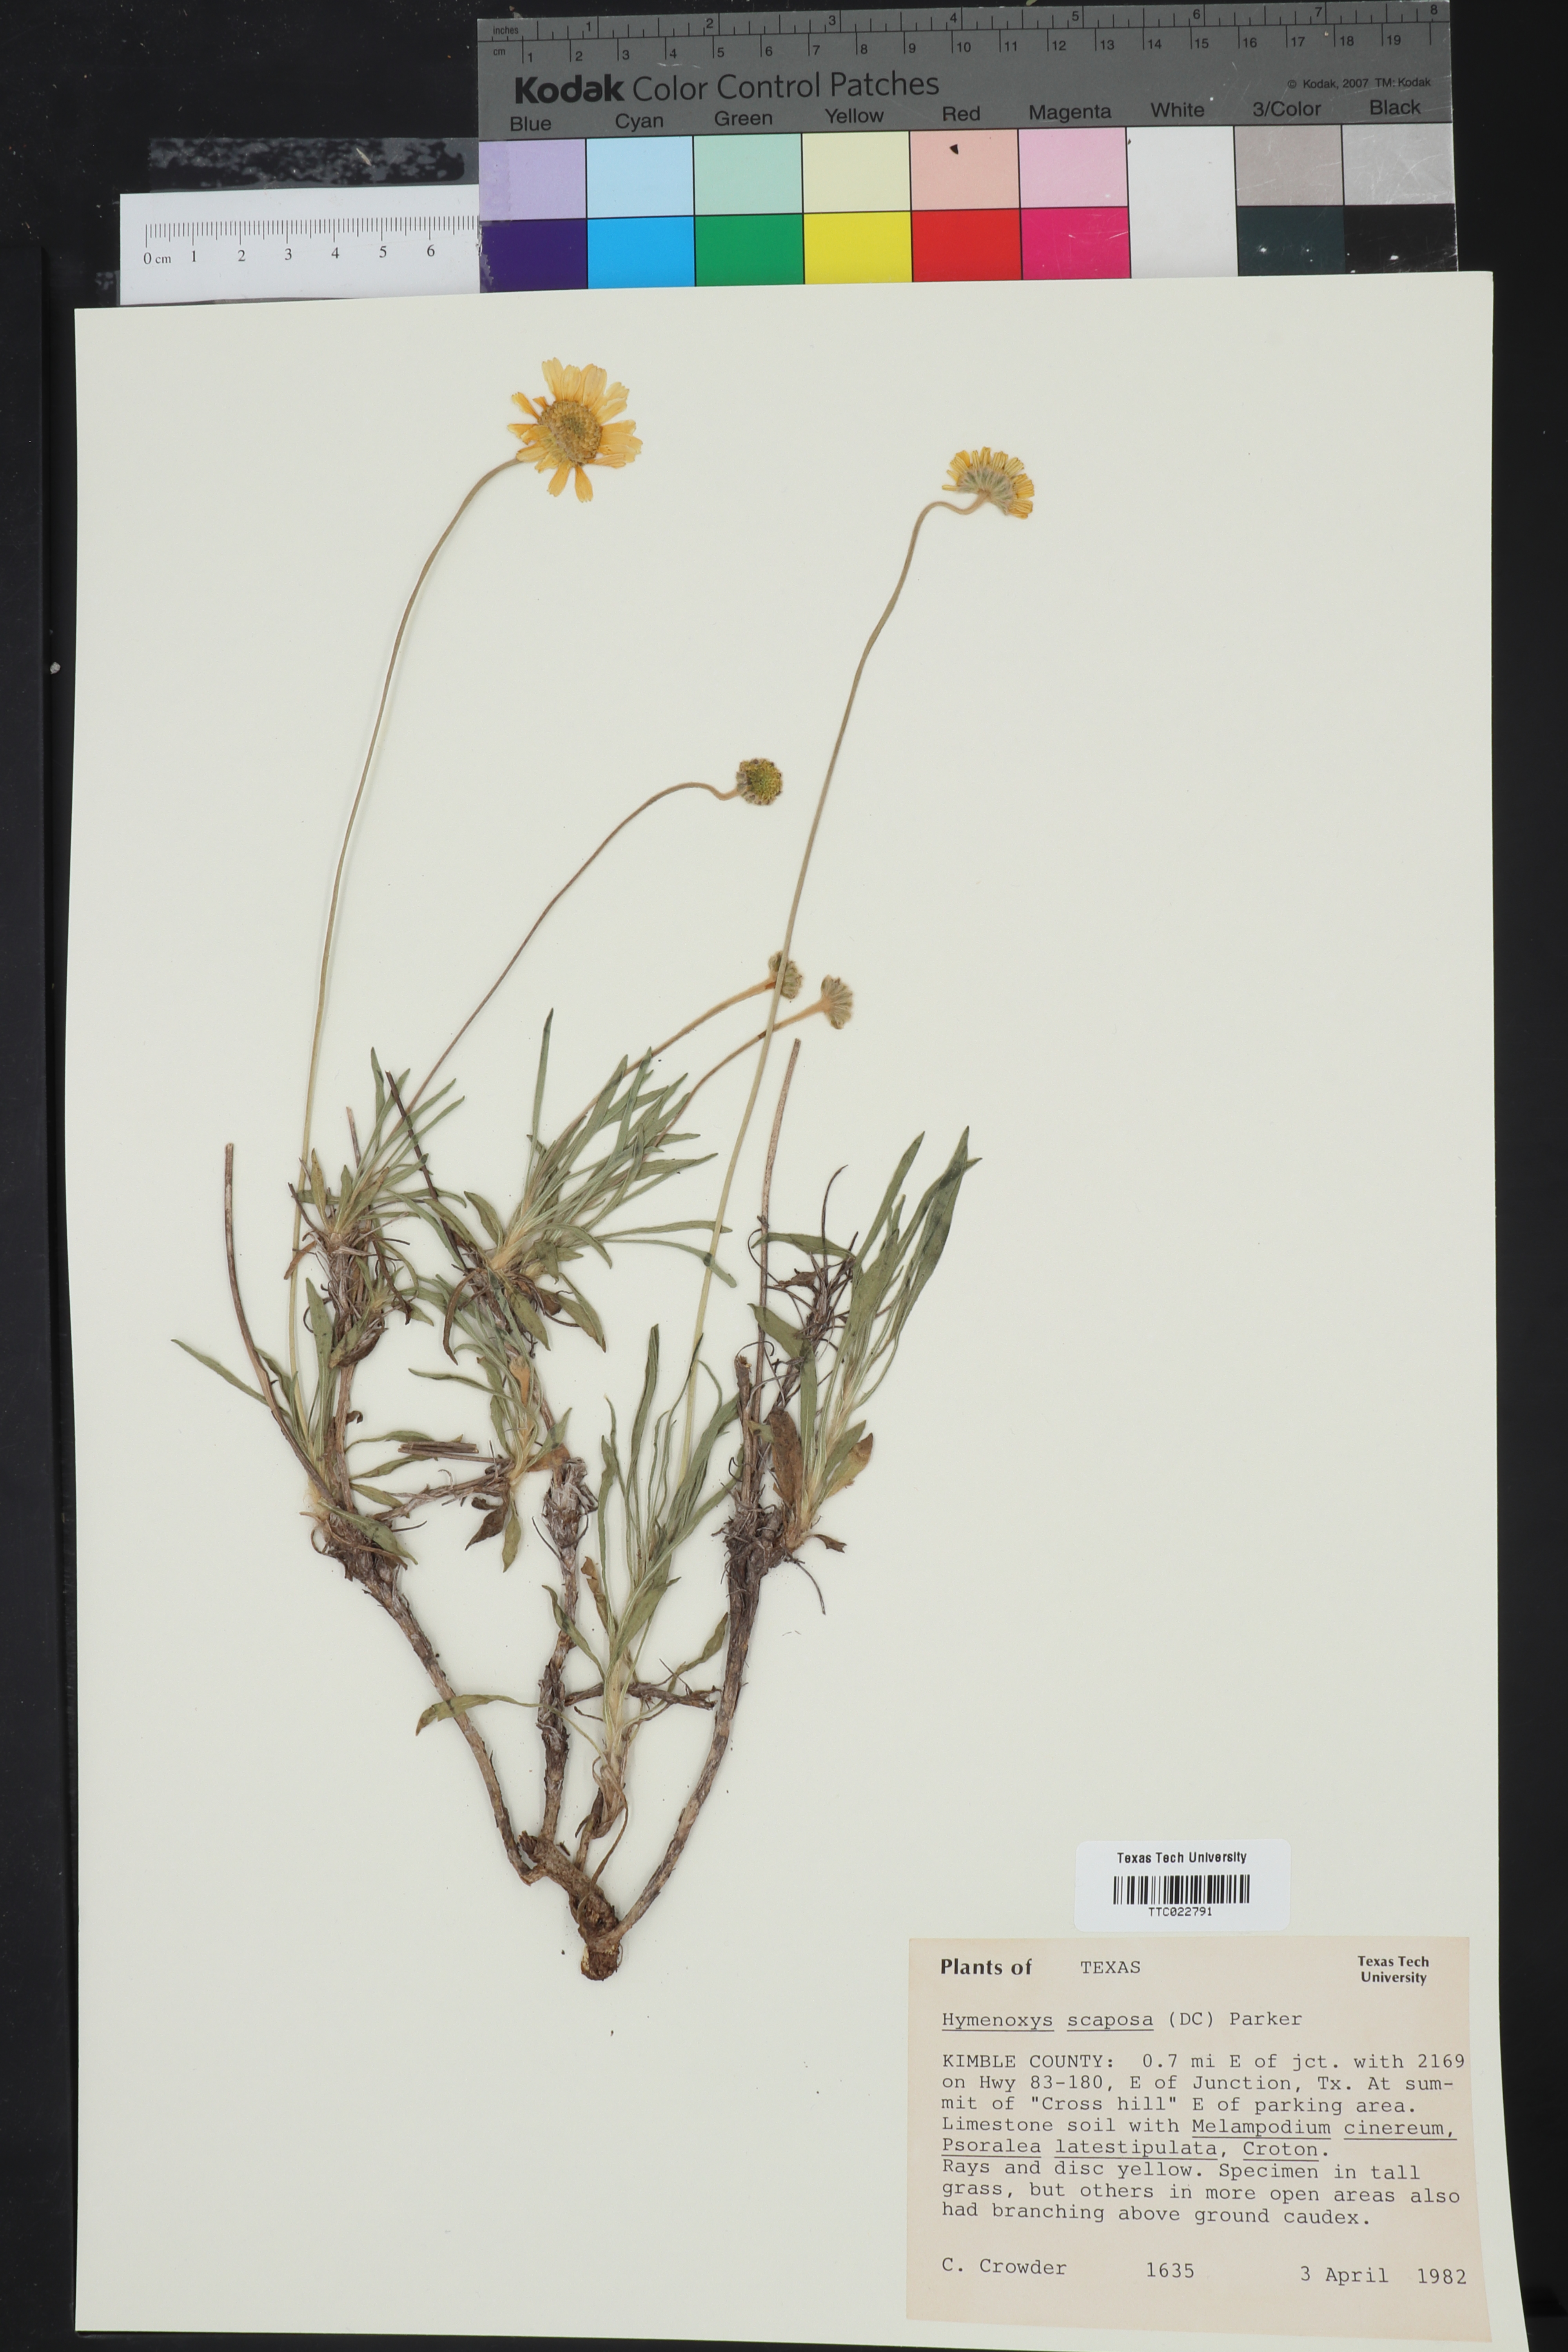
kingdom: Plantae
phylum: Tracheophyta
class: Magnoliopsida
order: Asterales
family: Asteraceae
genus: Tetraneuris
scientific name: Tetraneuris scaposa
